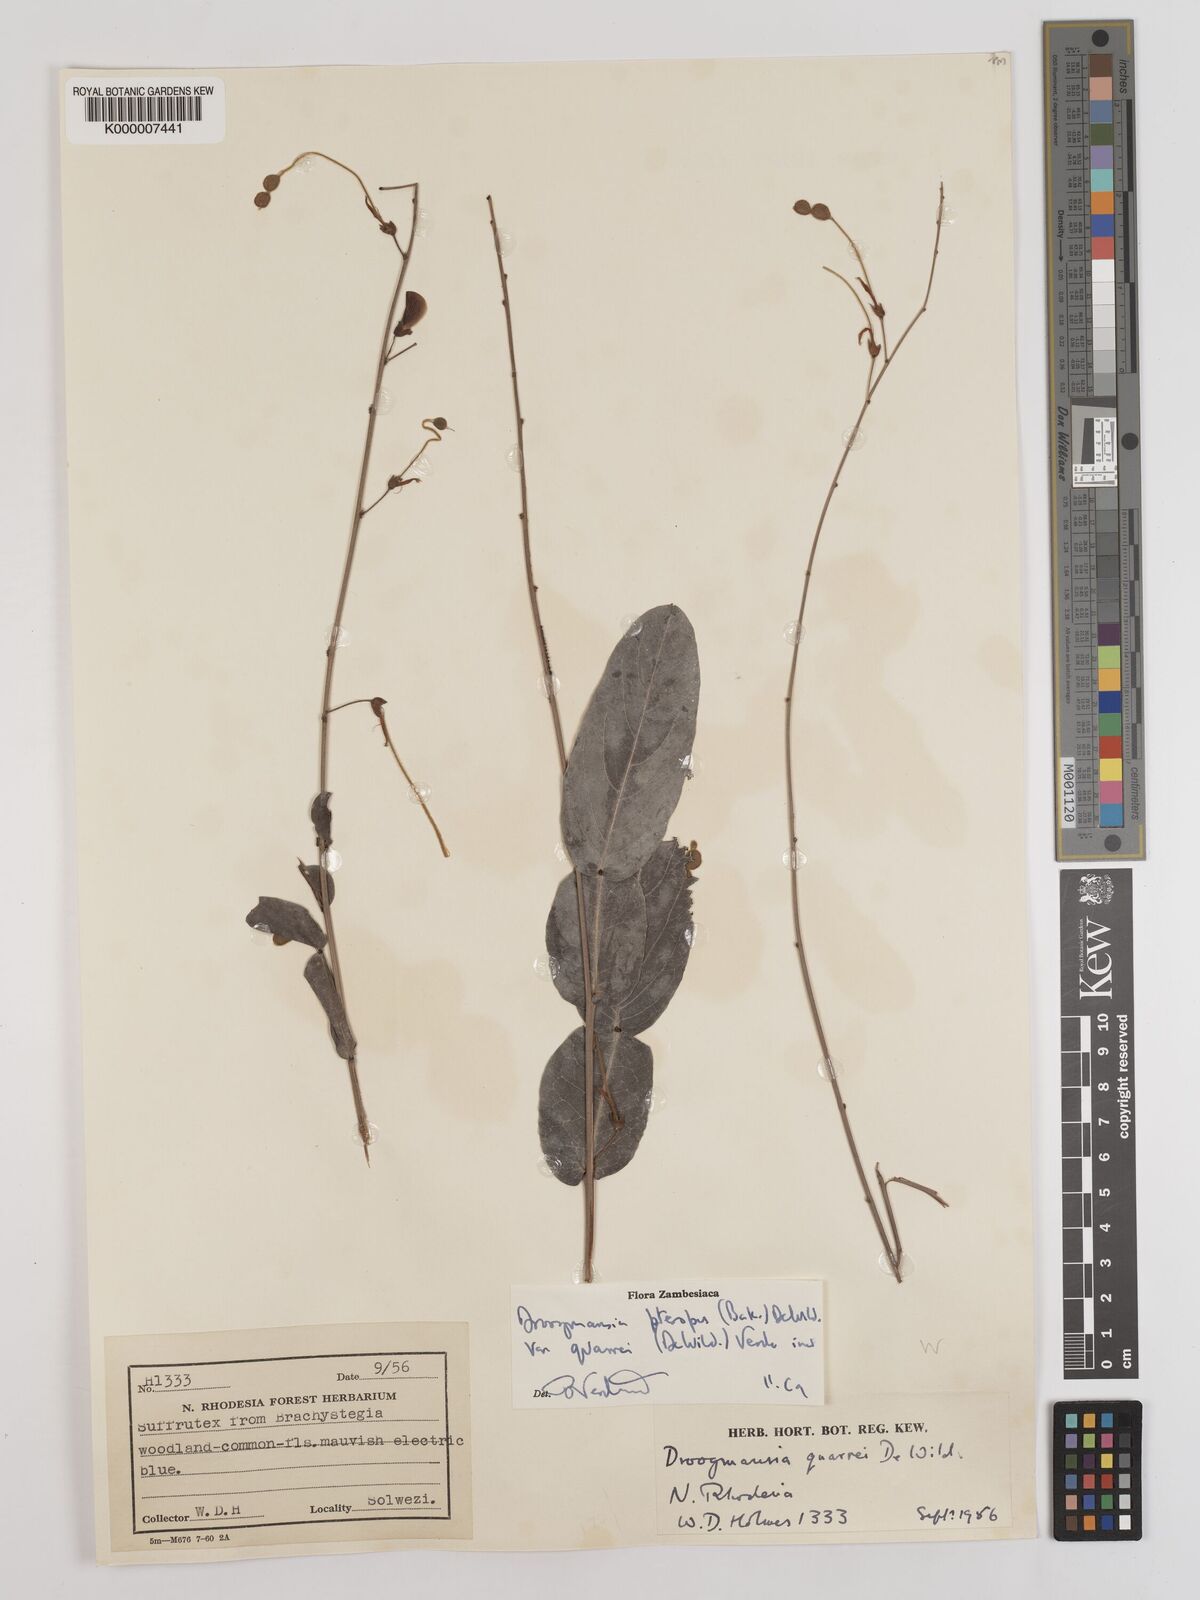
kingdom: Plantae
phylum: Tracheophyta
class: Magnoliopsida
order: Fabales
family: Fabaceae
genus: Droogmansia
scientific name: Droogmansia pteropus
